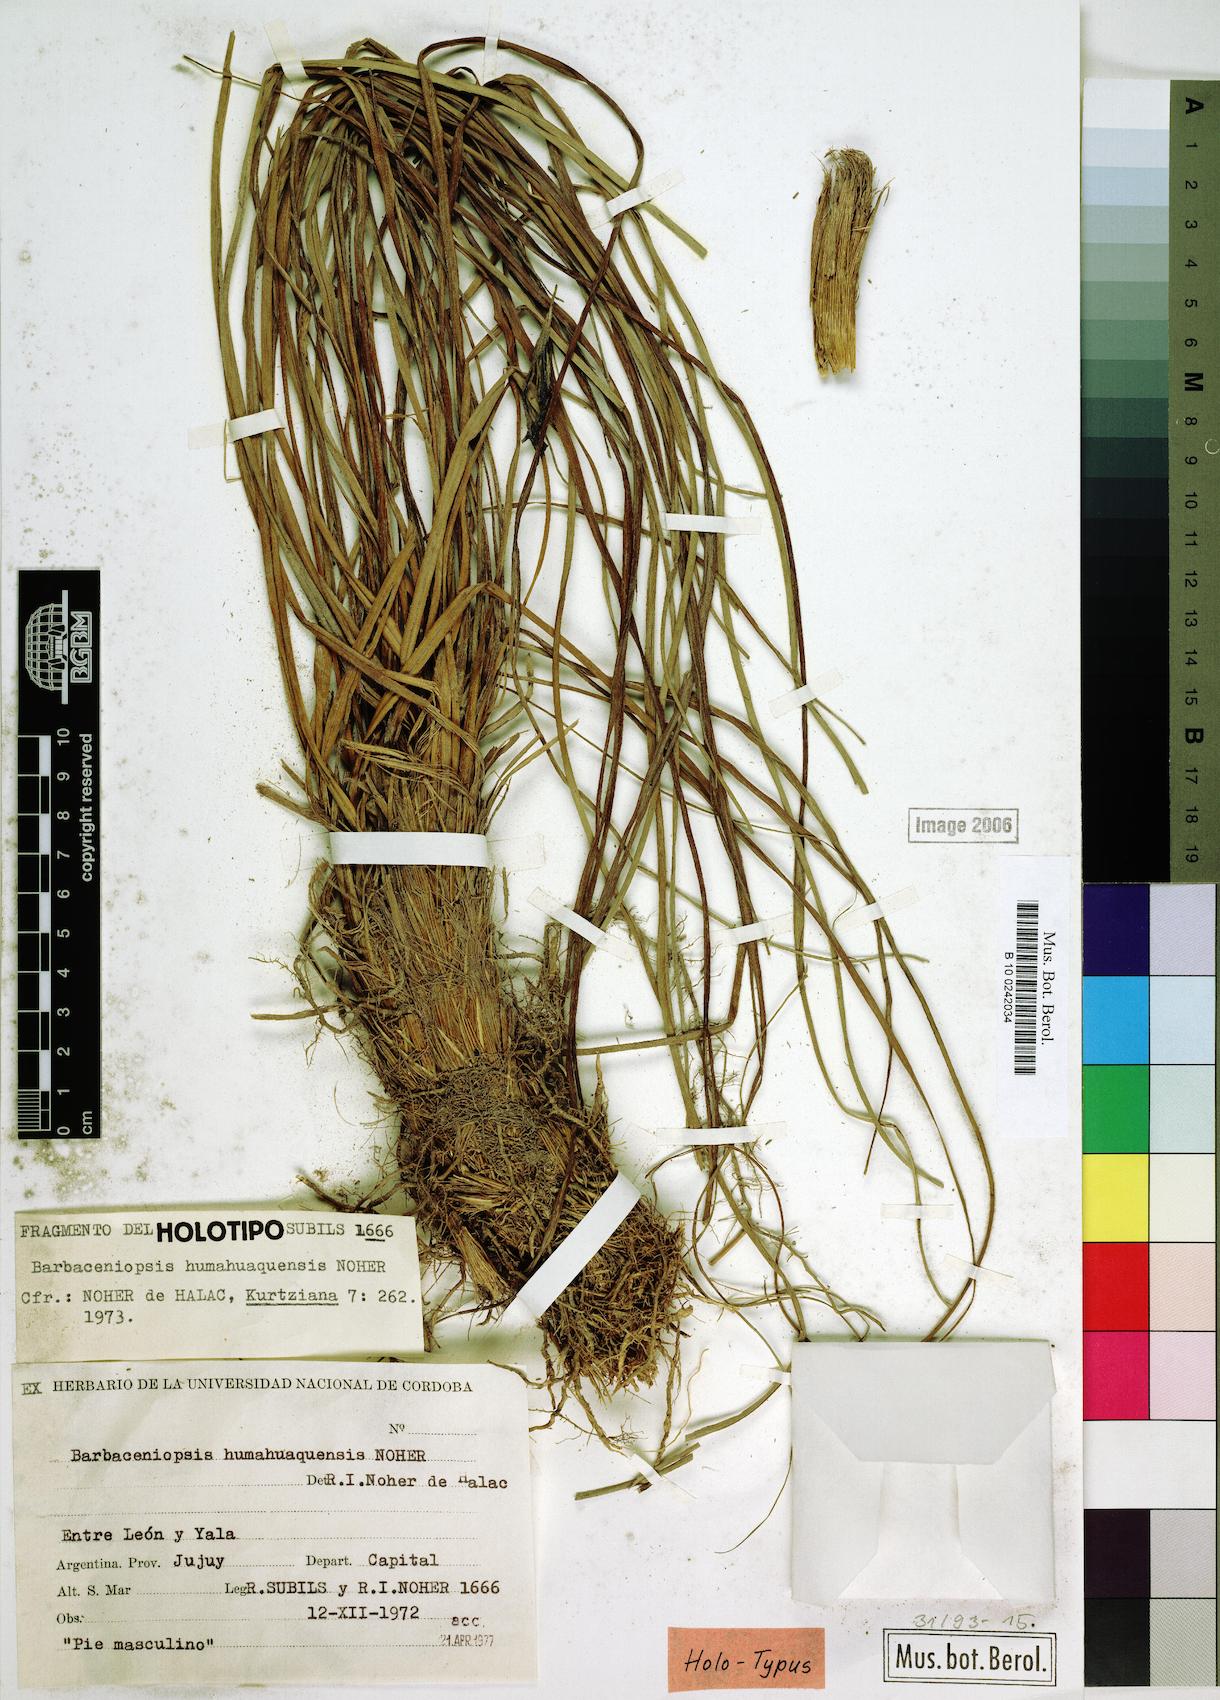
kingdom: Plantae
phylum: Tracheophyta
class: Liliopsida
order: Pandanales
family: Velloziaceae
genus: Barbaceniopsis
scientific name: Barbaceniopsis humahuaquensis
